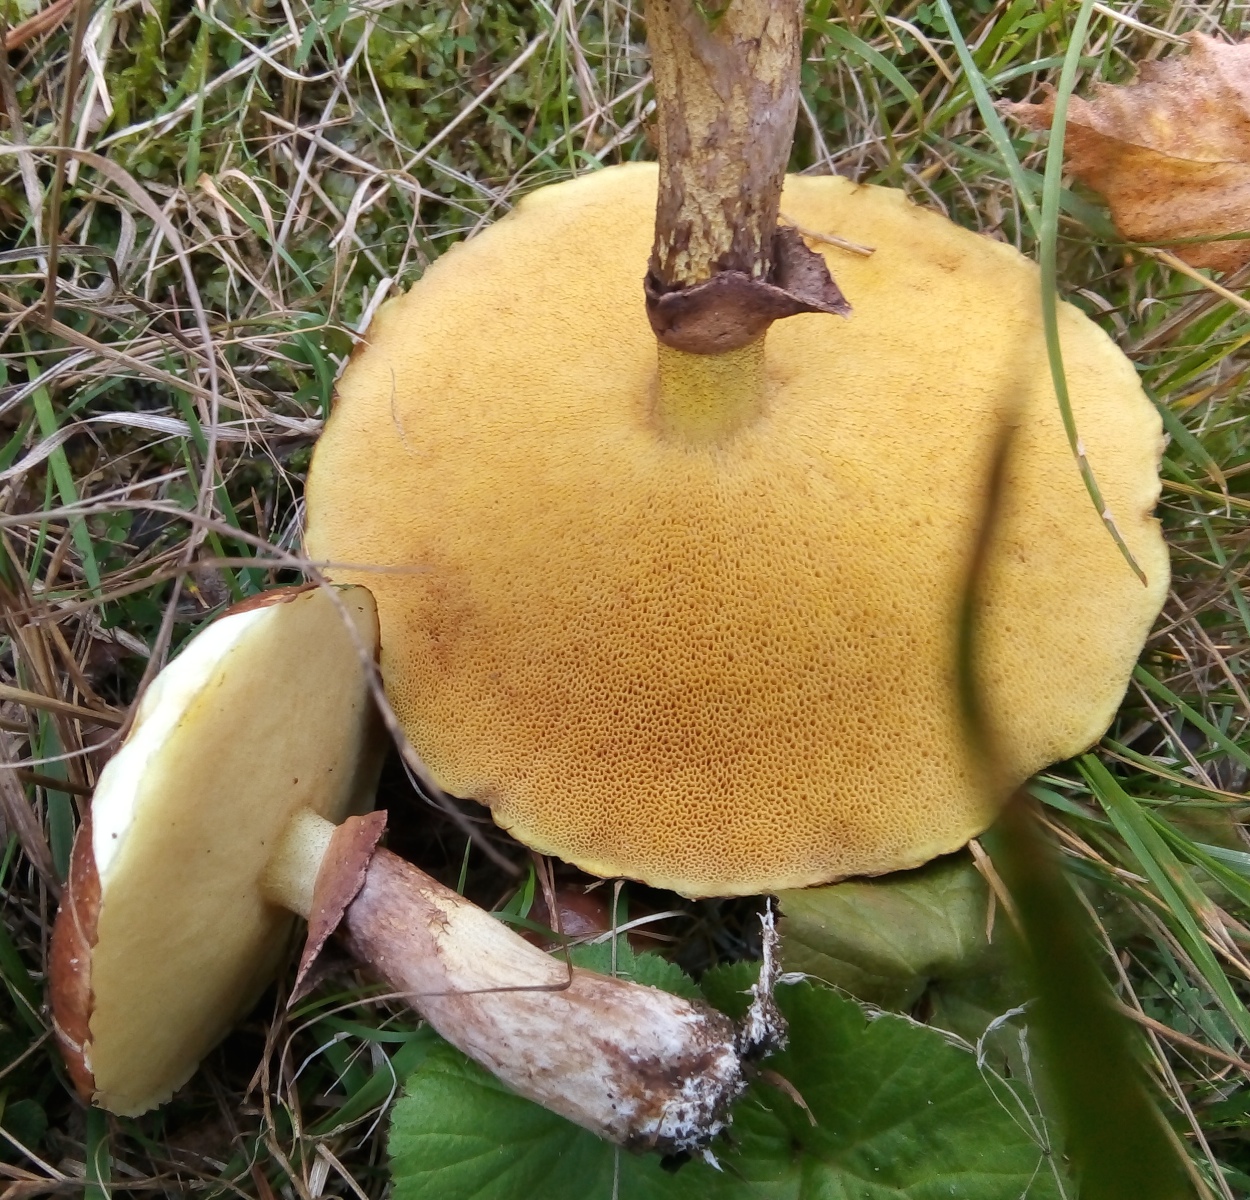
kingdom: Fungi
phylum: Basidiomycota
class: Agaricomycetes
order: Boletales
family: Suillaceae
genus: Suillus
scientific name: Suillus luteus
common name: brungul slimrørhat
